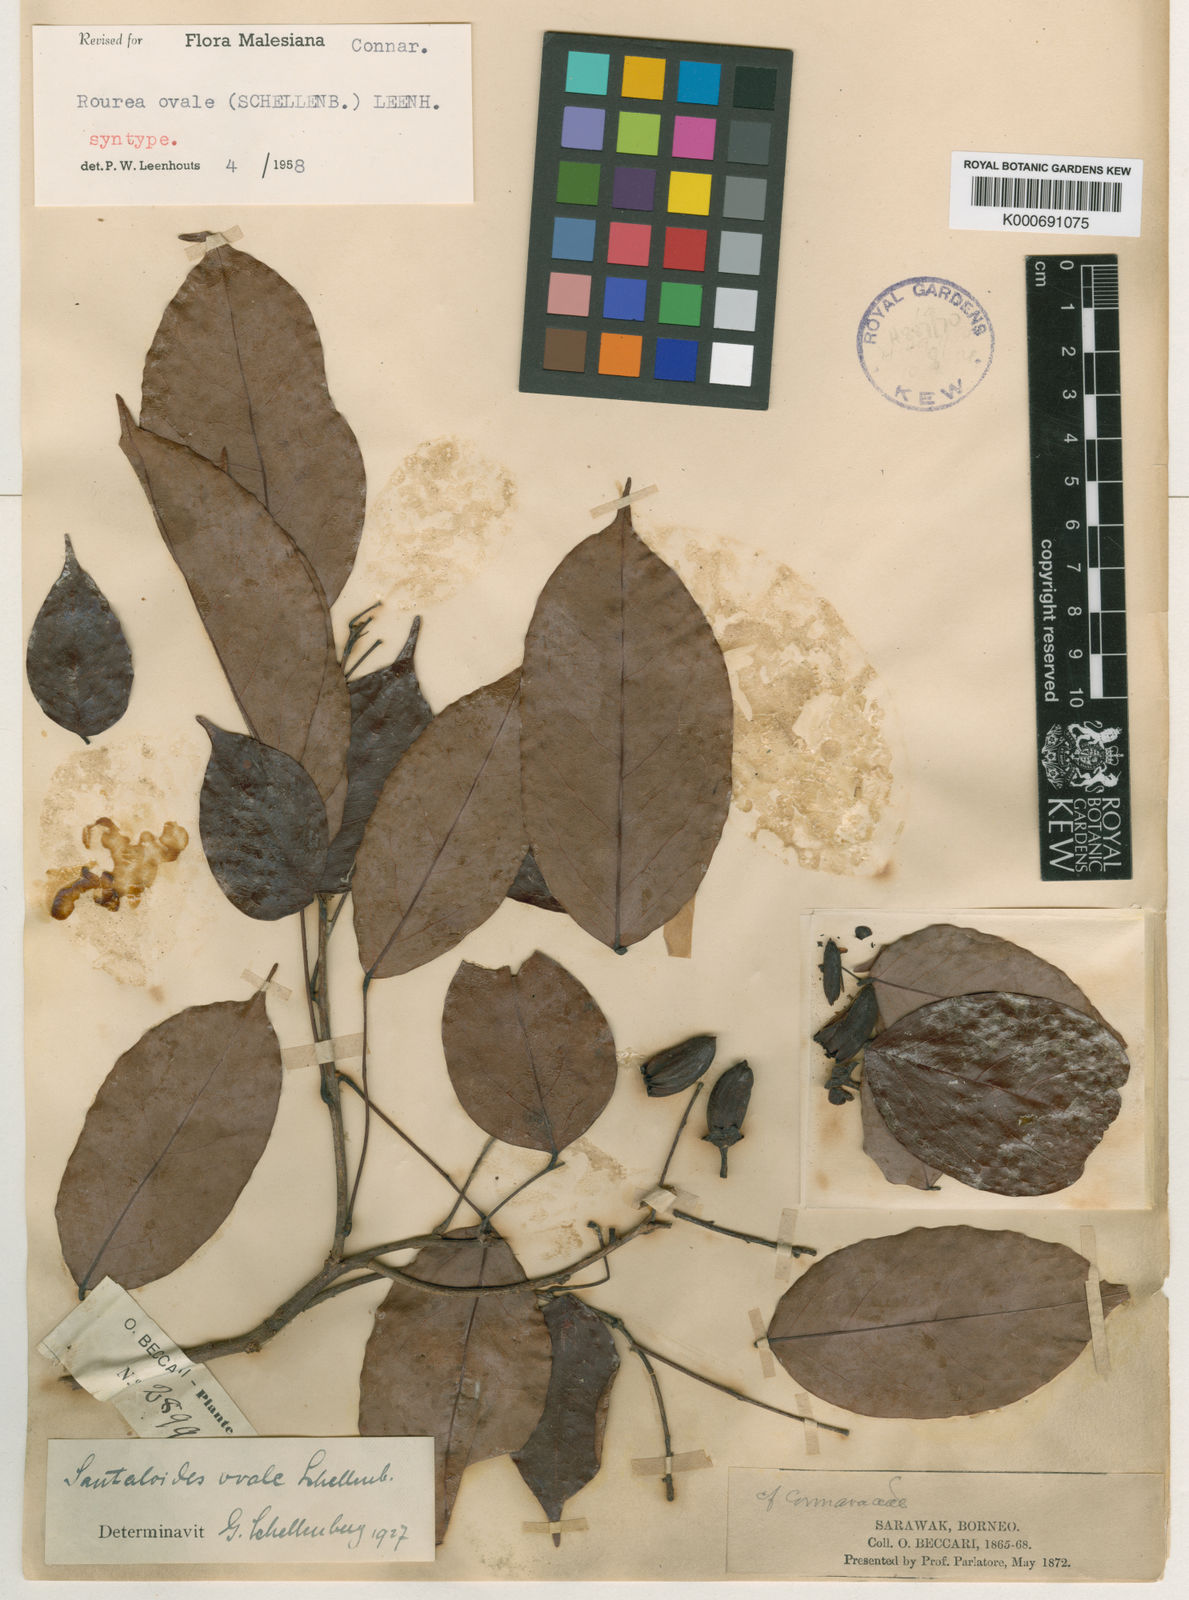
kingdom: Plantae
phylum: Tracheophyta
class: Magnoliopsida
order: Oxalidales
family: Connaraceae
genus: Rourea
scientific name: Rourea ovalis
